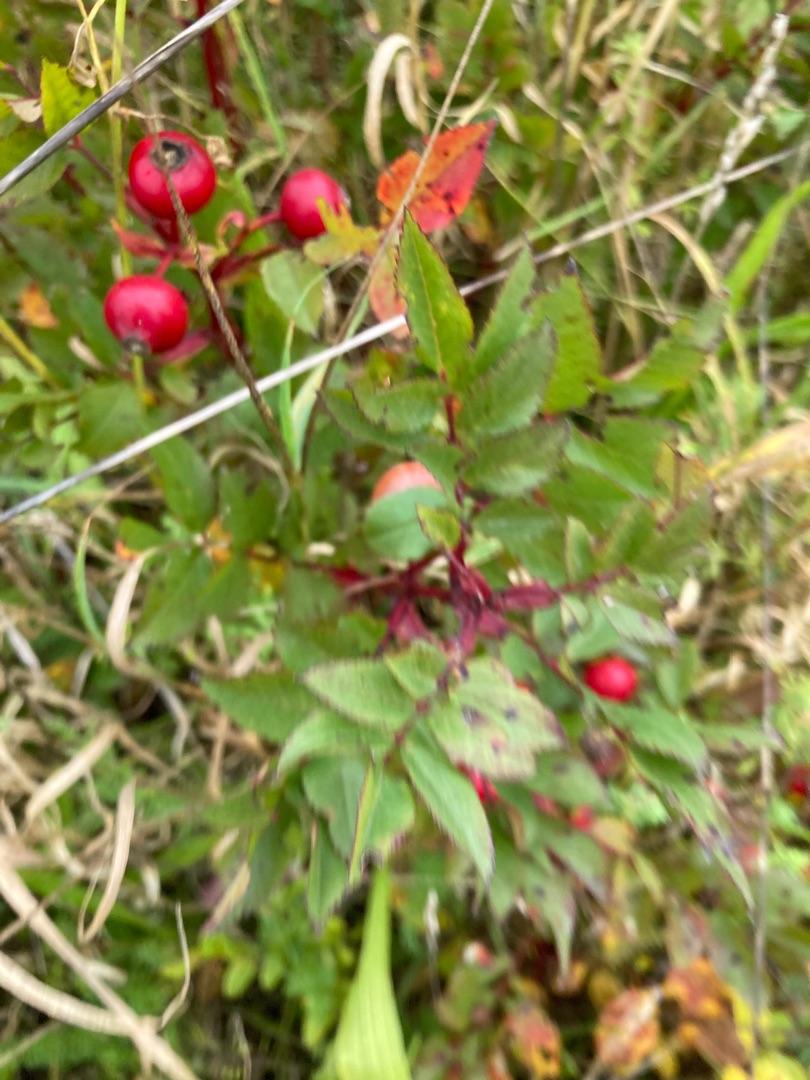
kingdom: Plantae
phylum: Tracheophyta
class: Magnoliopsida
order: Rosales
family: Rosaceae
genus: Rosa
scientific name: Rosa carolina
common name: Glansbladet rose
